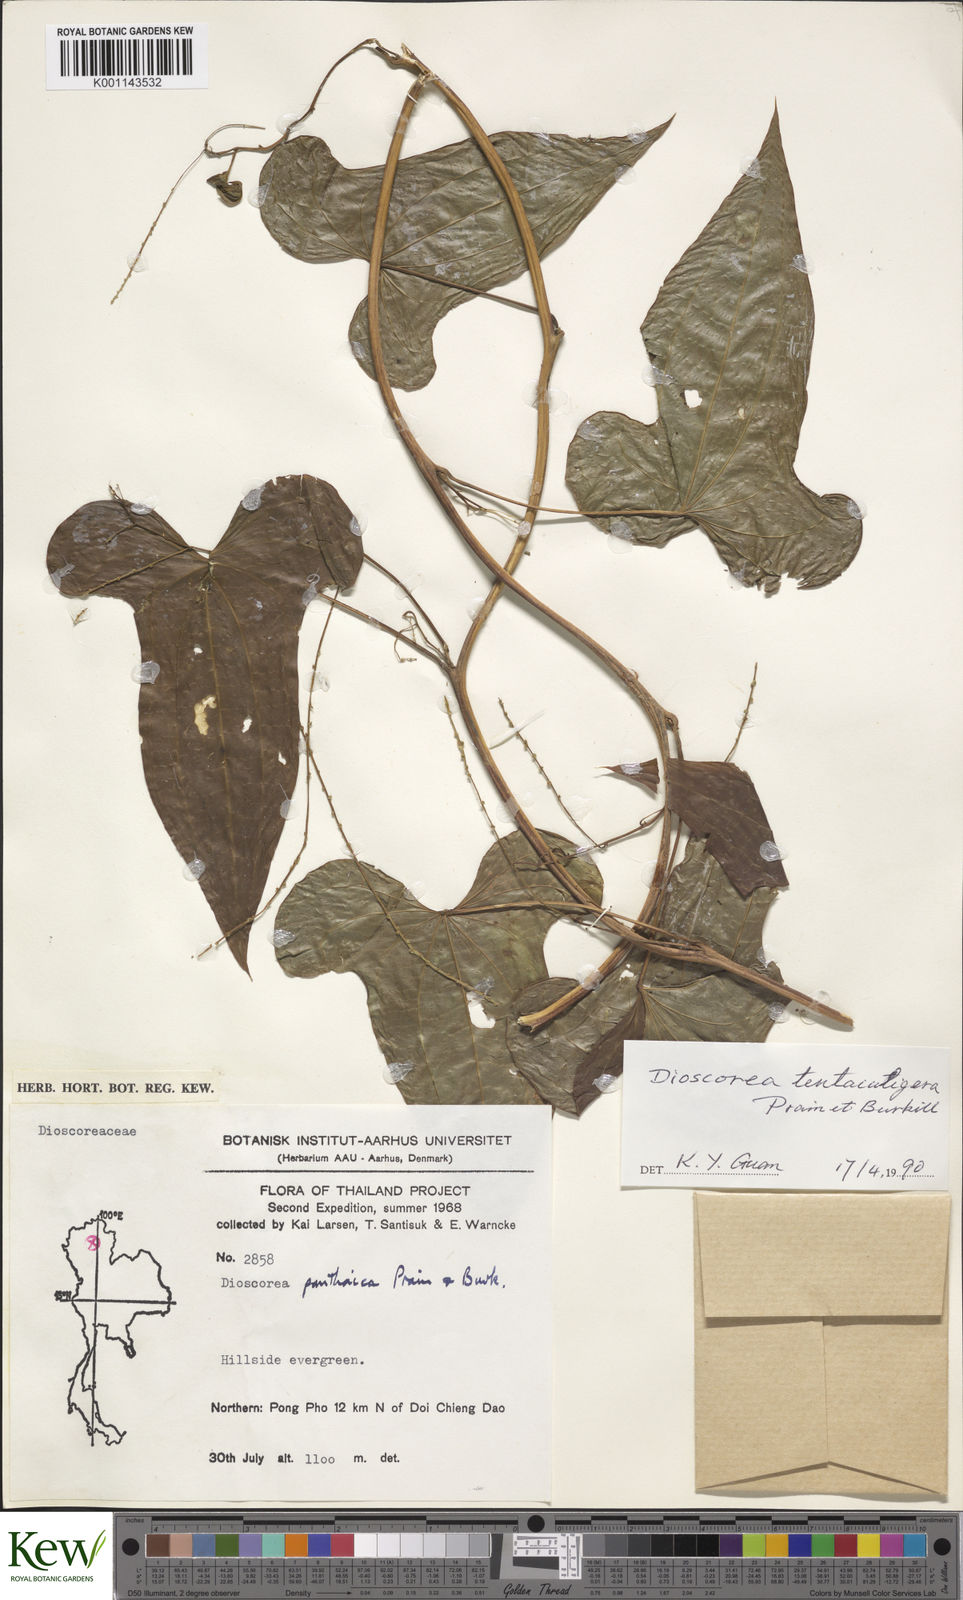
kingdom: Plantae
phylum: Tracheophyta
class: Liliopsida
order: Dioscoreales
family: Dioscoreaceae
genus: Dioscorea
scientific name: Dioscorea tentaculigera
